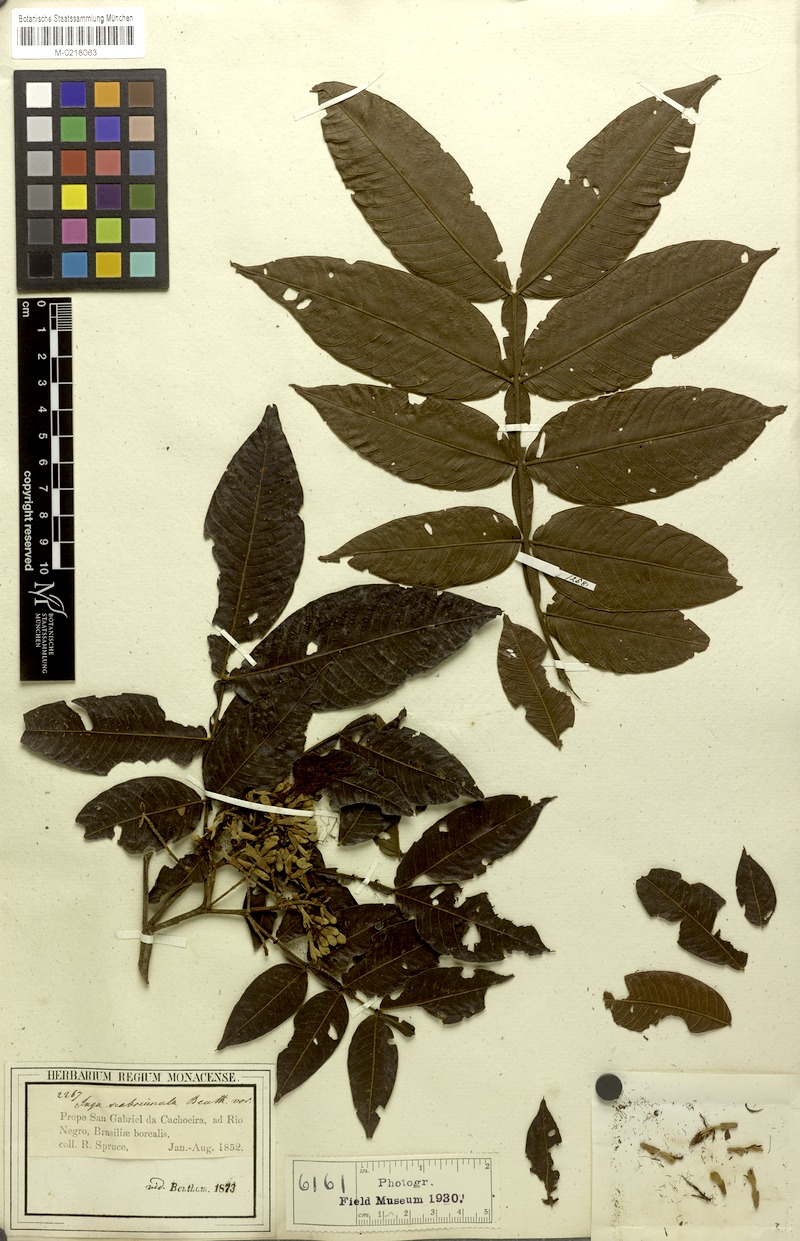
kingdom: Plantae
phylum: Tracheophyta
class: Magnoliopsida
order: Fabales
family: Fabaceae
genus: Inga
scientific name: Inga edulis
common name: Ice cream bean
